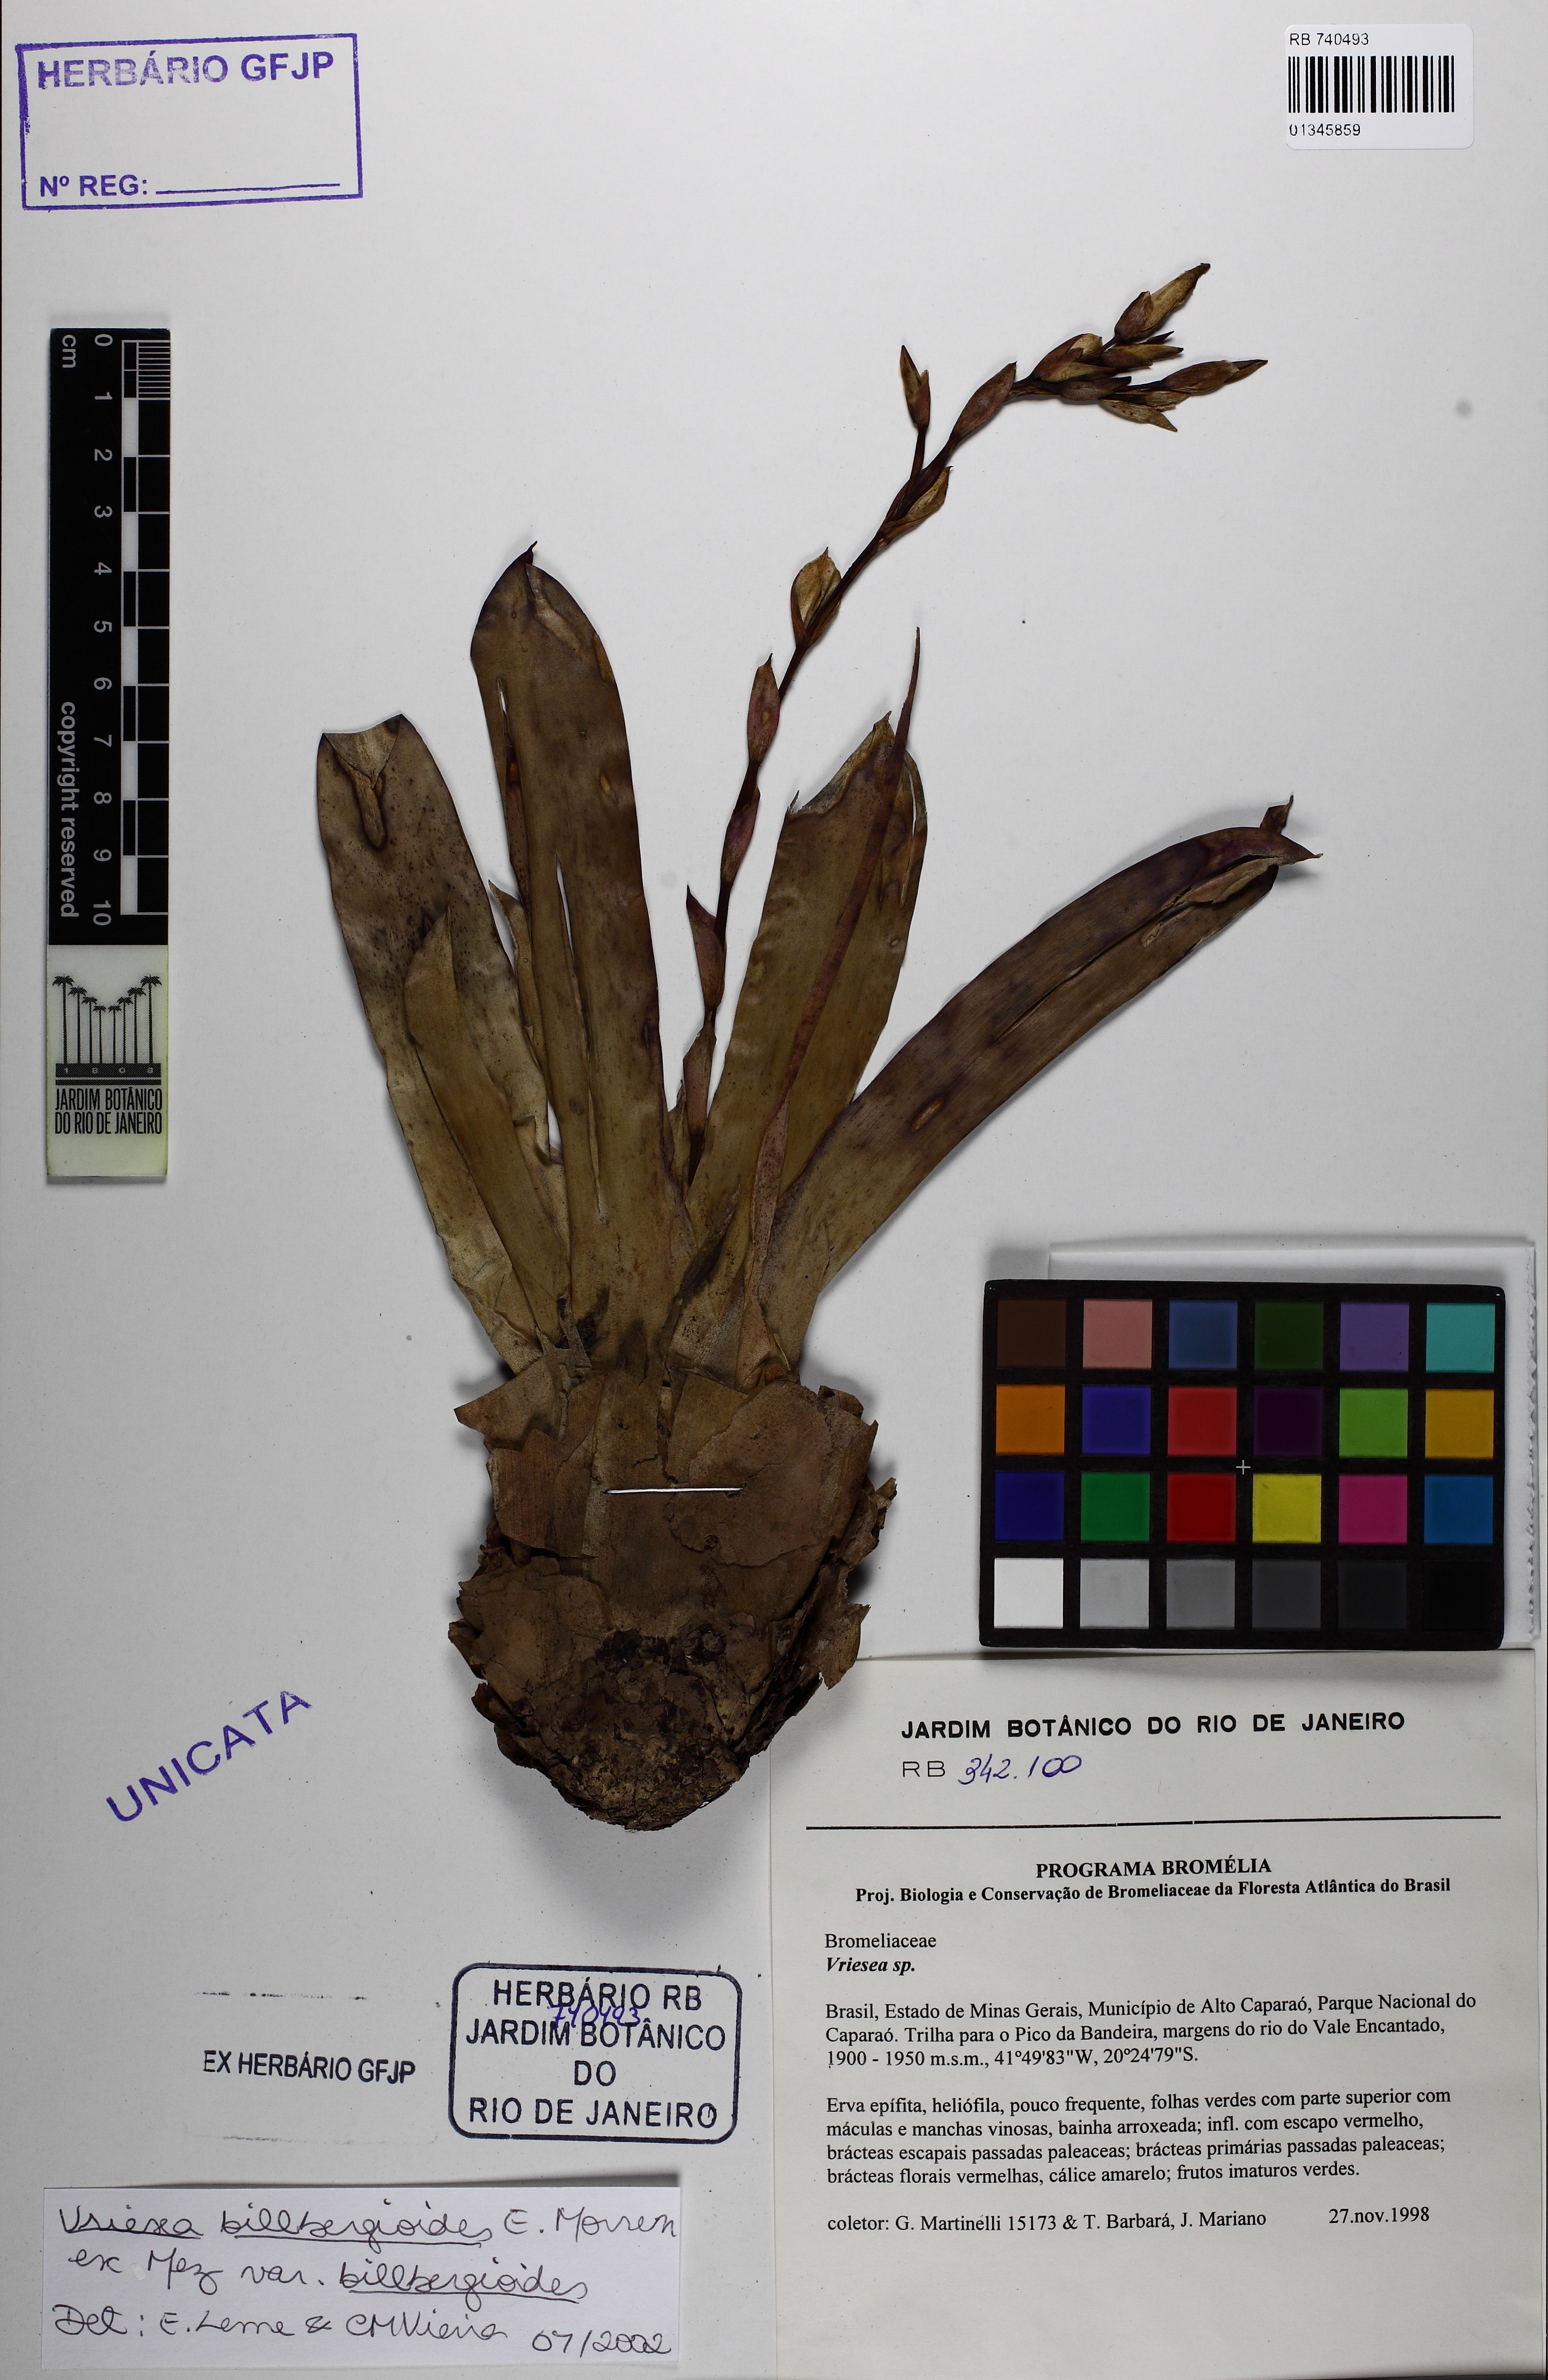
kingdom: Plantae
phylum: Tracheophyta
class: Liliopsida
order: Poales
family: Bromeliaceae
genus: Vriesea
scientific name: Vriesea billbergioides
